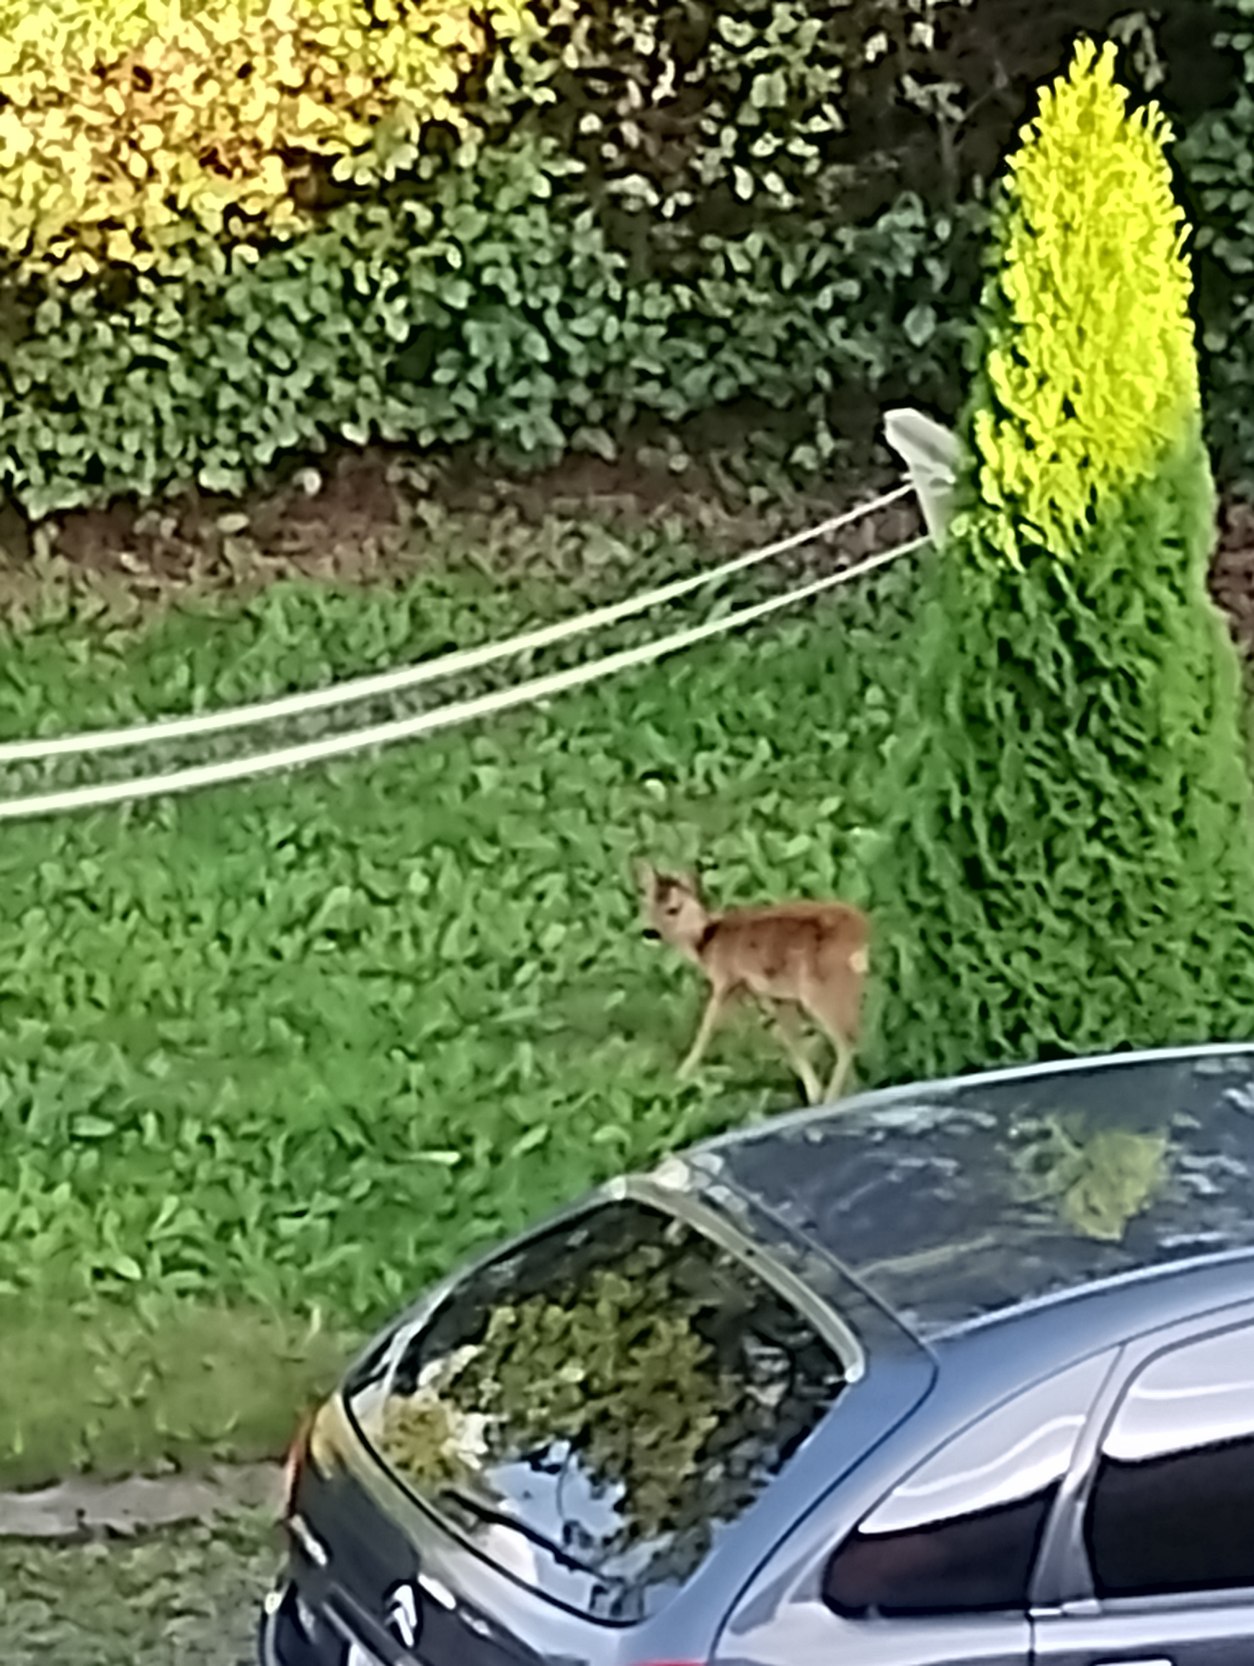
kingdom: Animalia
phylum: Chordata
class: Mammalia
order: Artiodactyla
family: Cervidae
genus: Capreolus
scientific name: Capreolus capreolus
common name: Rådyr
